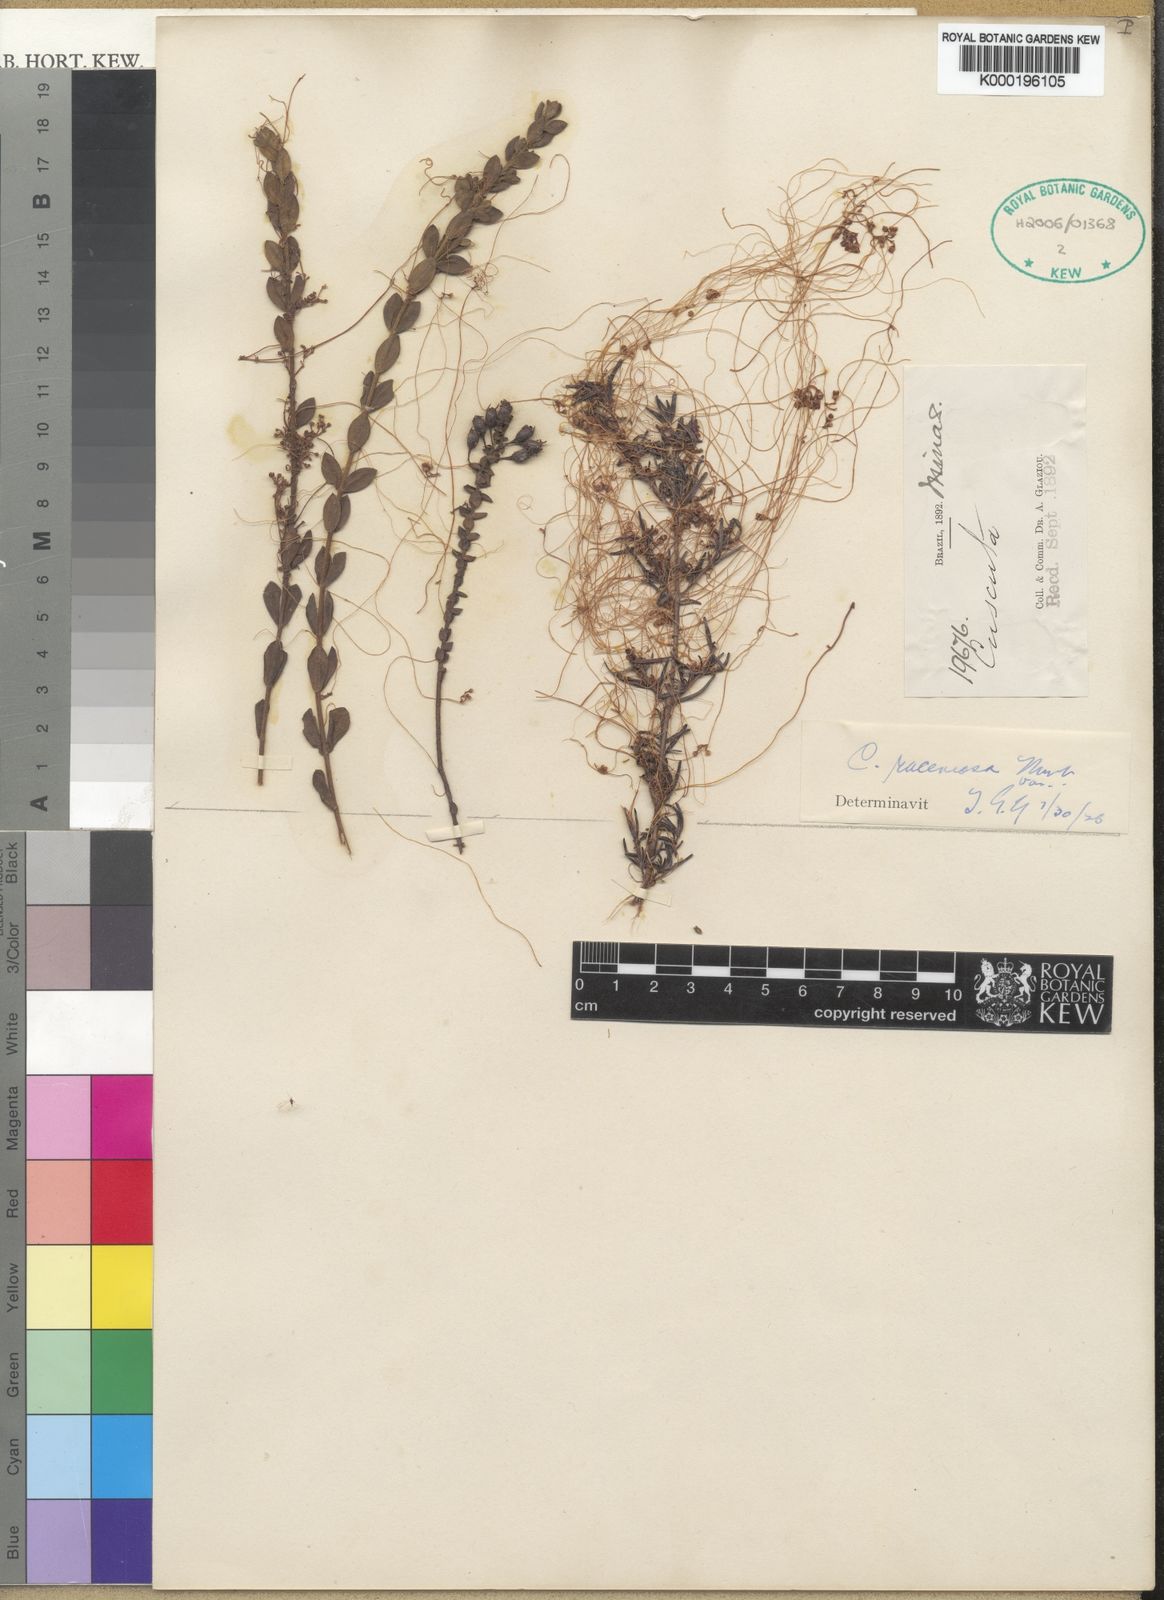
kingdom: Plantae
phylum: Tracheophyta
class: Magnoliopsida
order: Solanales
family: Convolvulaceae
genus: Cuscuta
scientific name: Cuscuta racemosa
